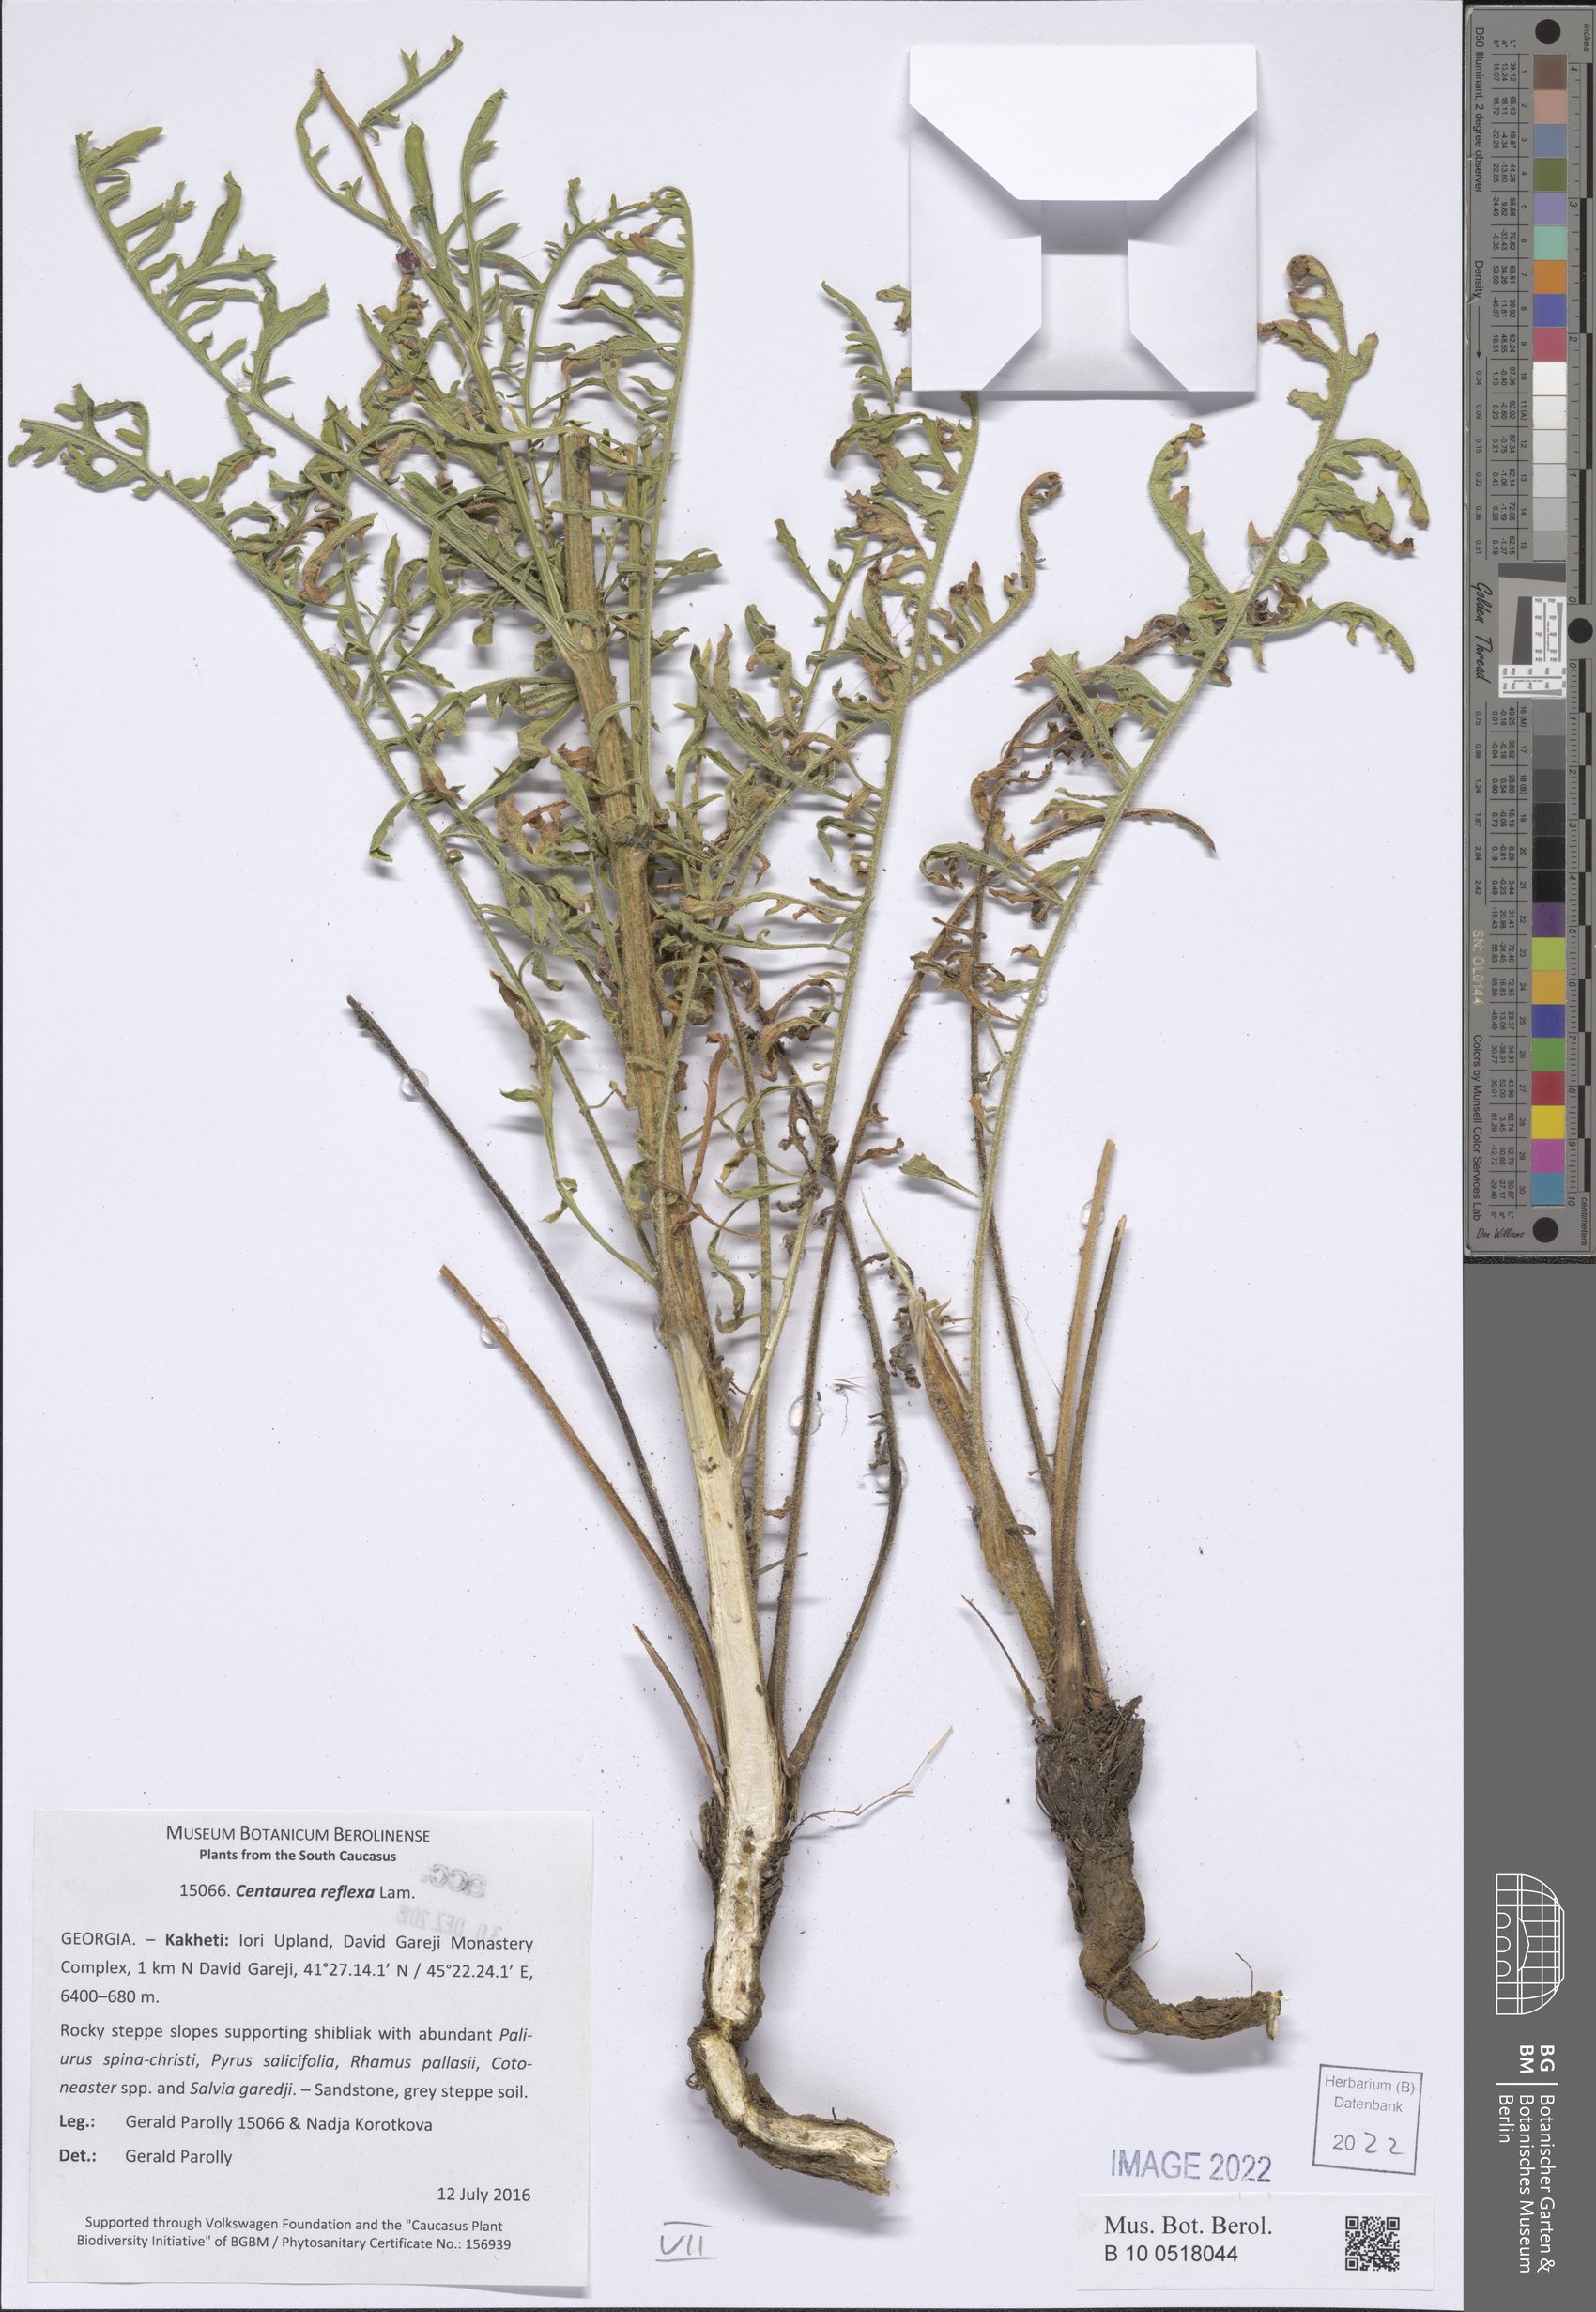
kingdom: Plantae
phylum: Tracheophyta
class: Magnoliopsida
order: Asterales
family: Asteraceae
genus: Centaurea
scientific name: Centaurea reflexa
